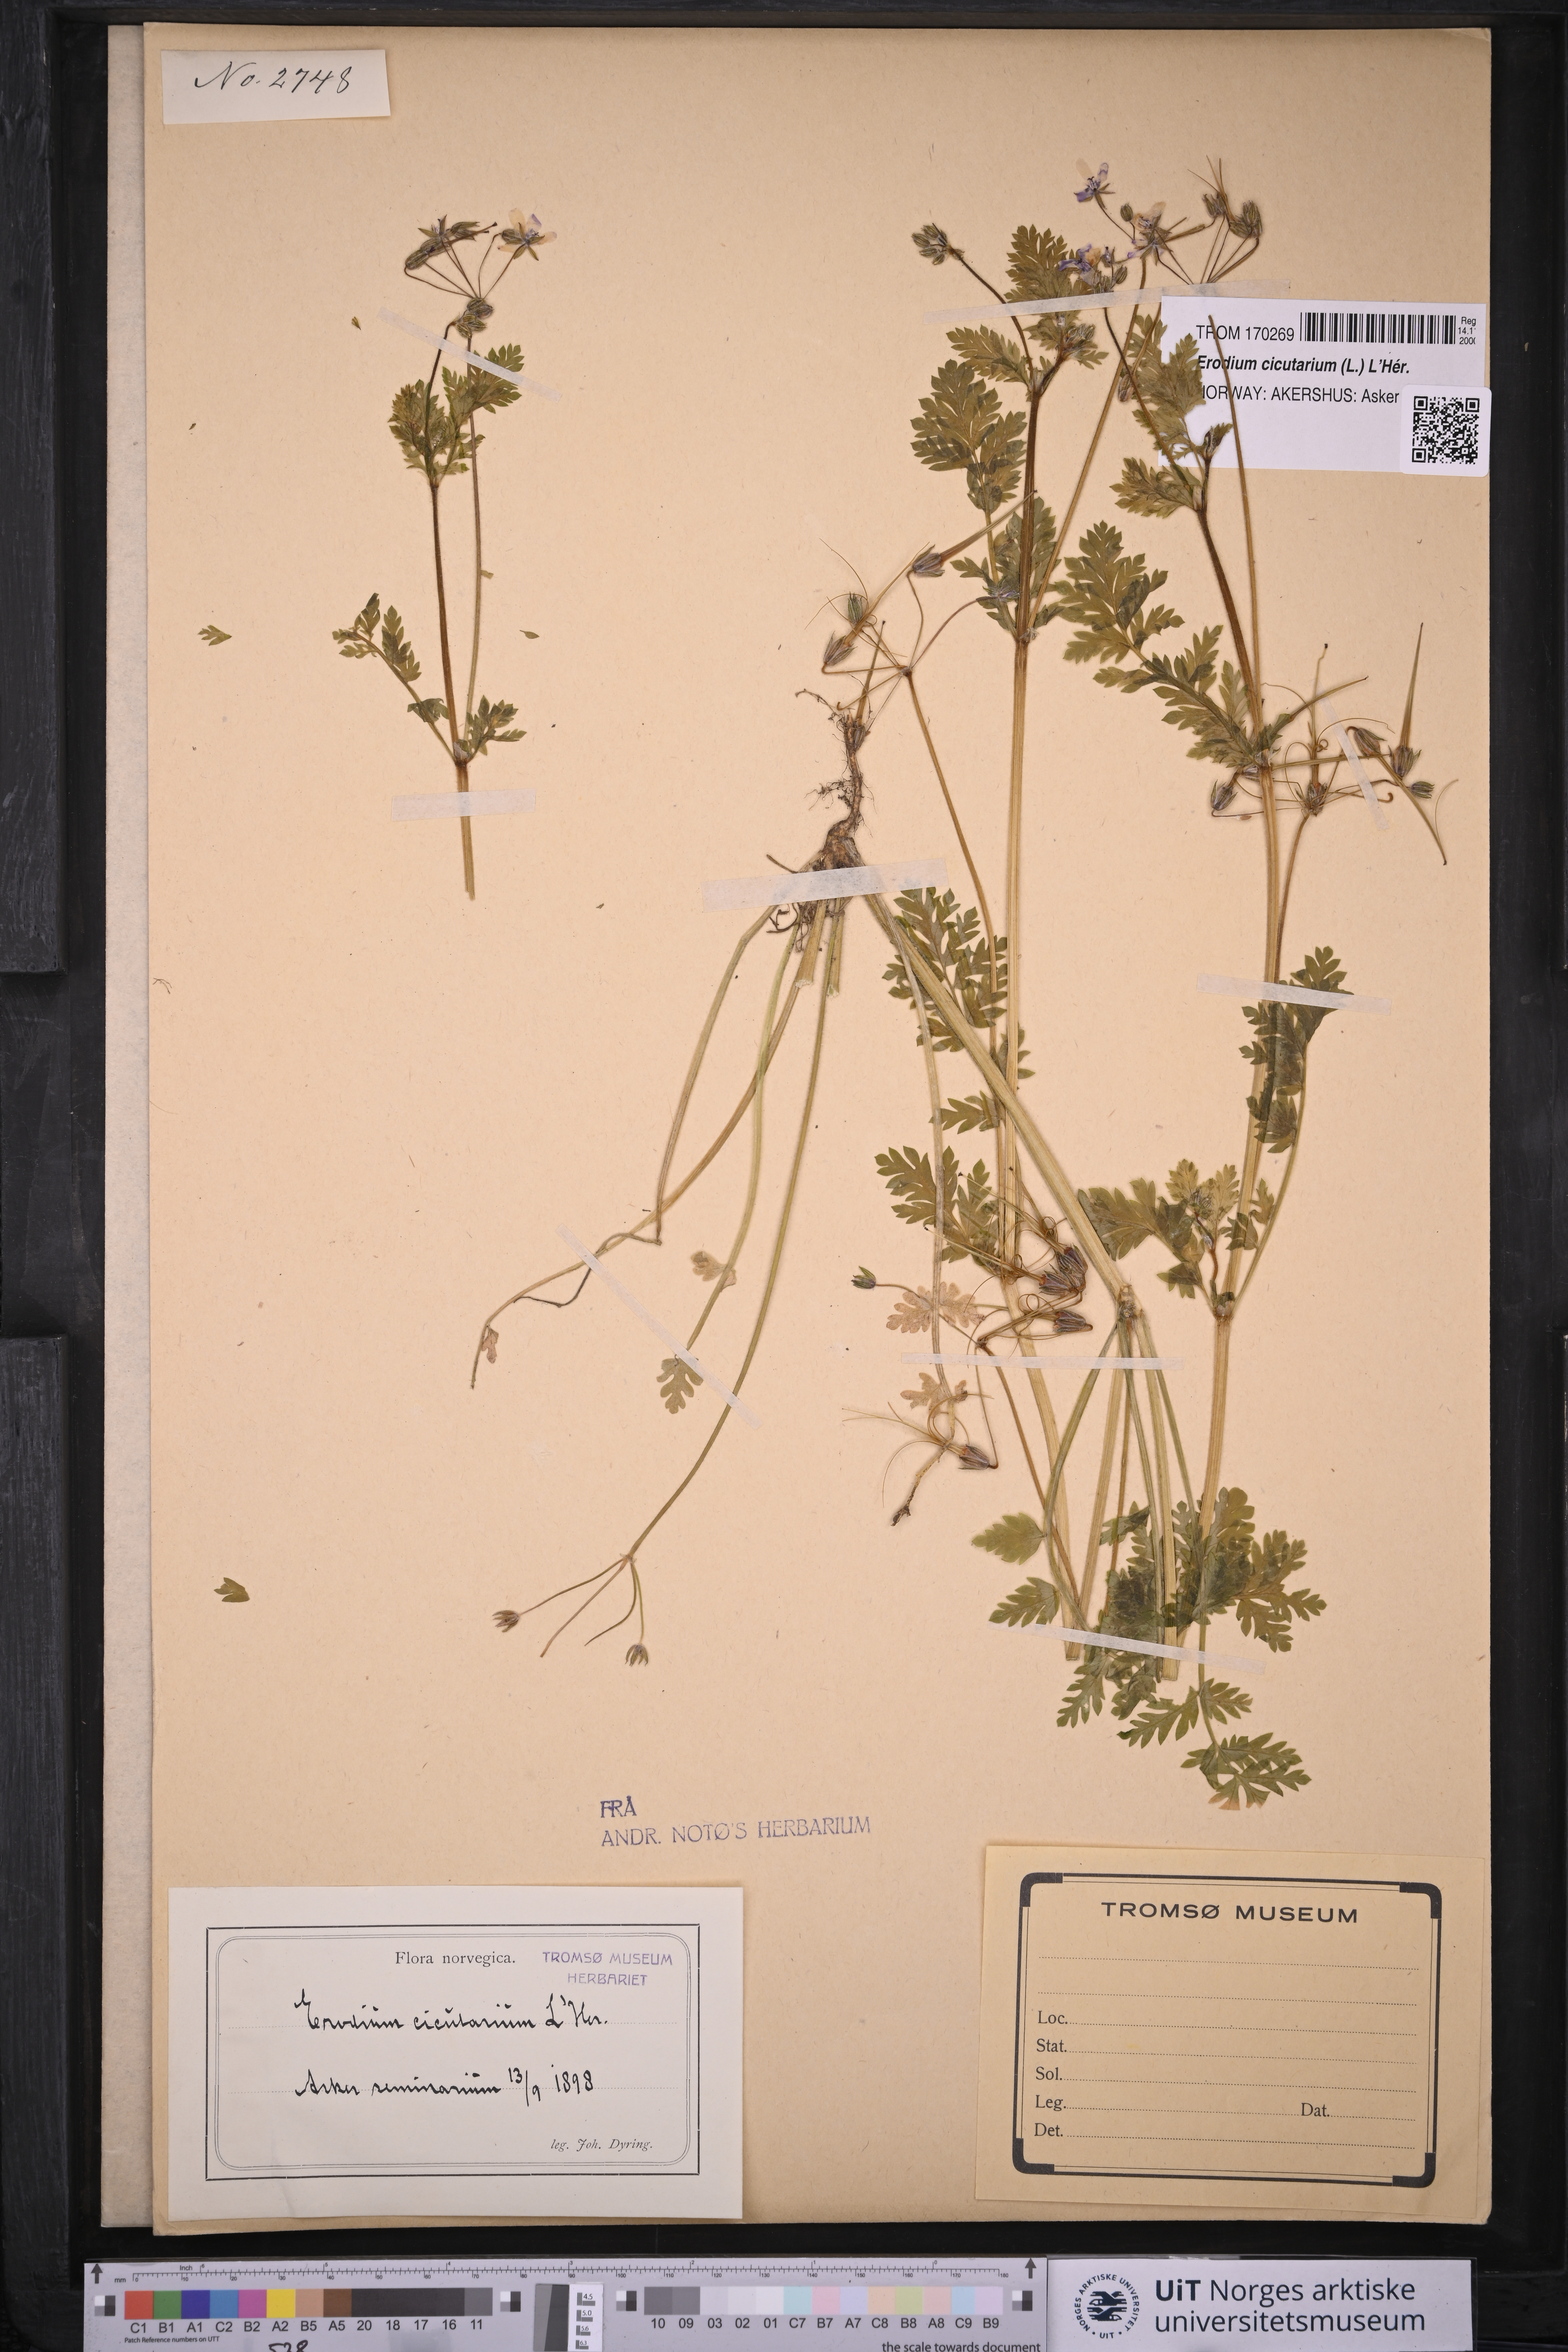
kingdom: Plantae
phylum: Tracheophyta
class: Magnoliopsida
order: Geraniales
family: Geraniaceae
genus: Erodium
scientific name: Erodium cicutarium
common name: Common stork's-bill
